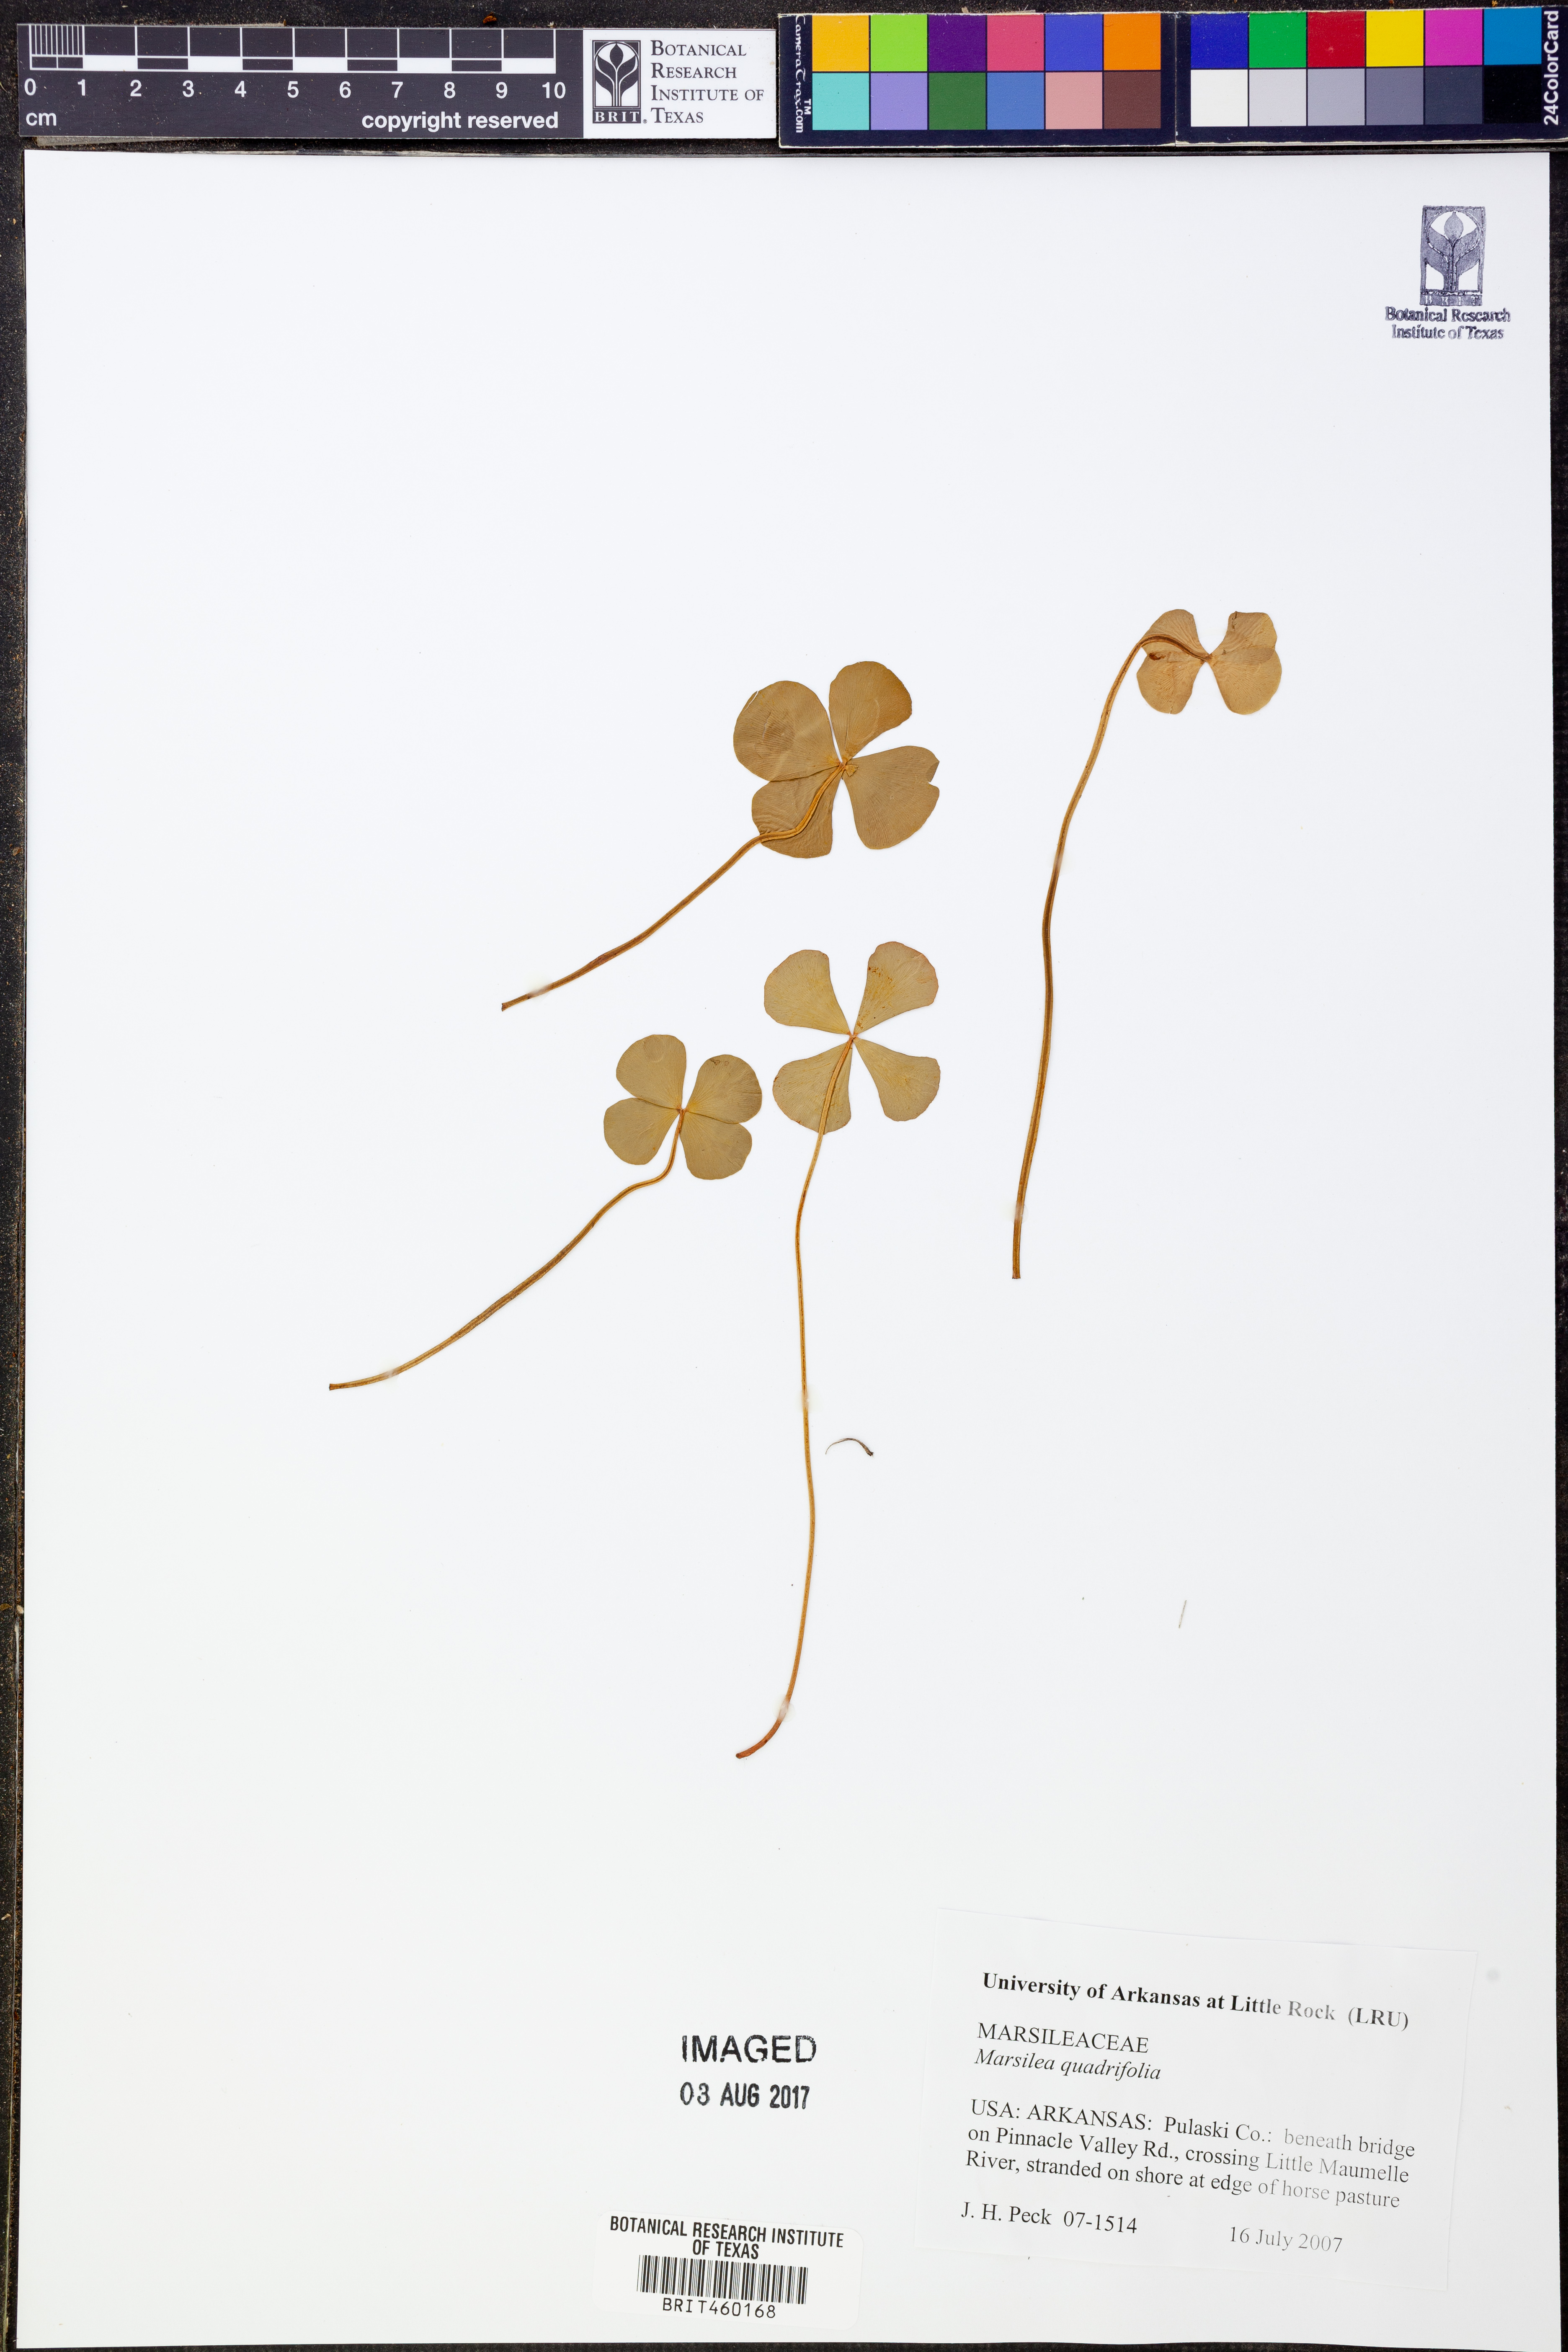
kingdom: Plantae
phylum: Tracheophyta
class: Polypodiopsida
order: Salviniales
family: Marsileaceae
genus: Marsilea
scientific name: Marsilea quadrifolia
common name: Water shamrock
